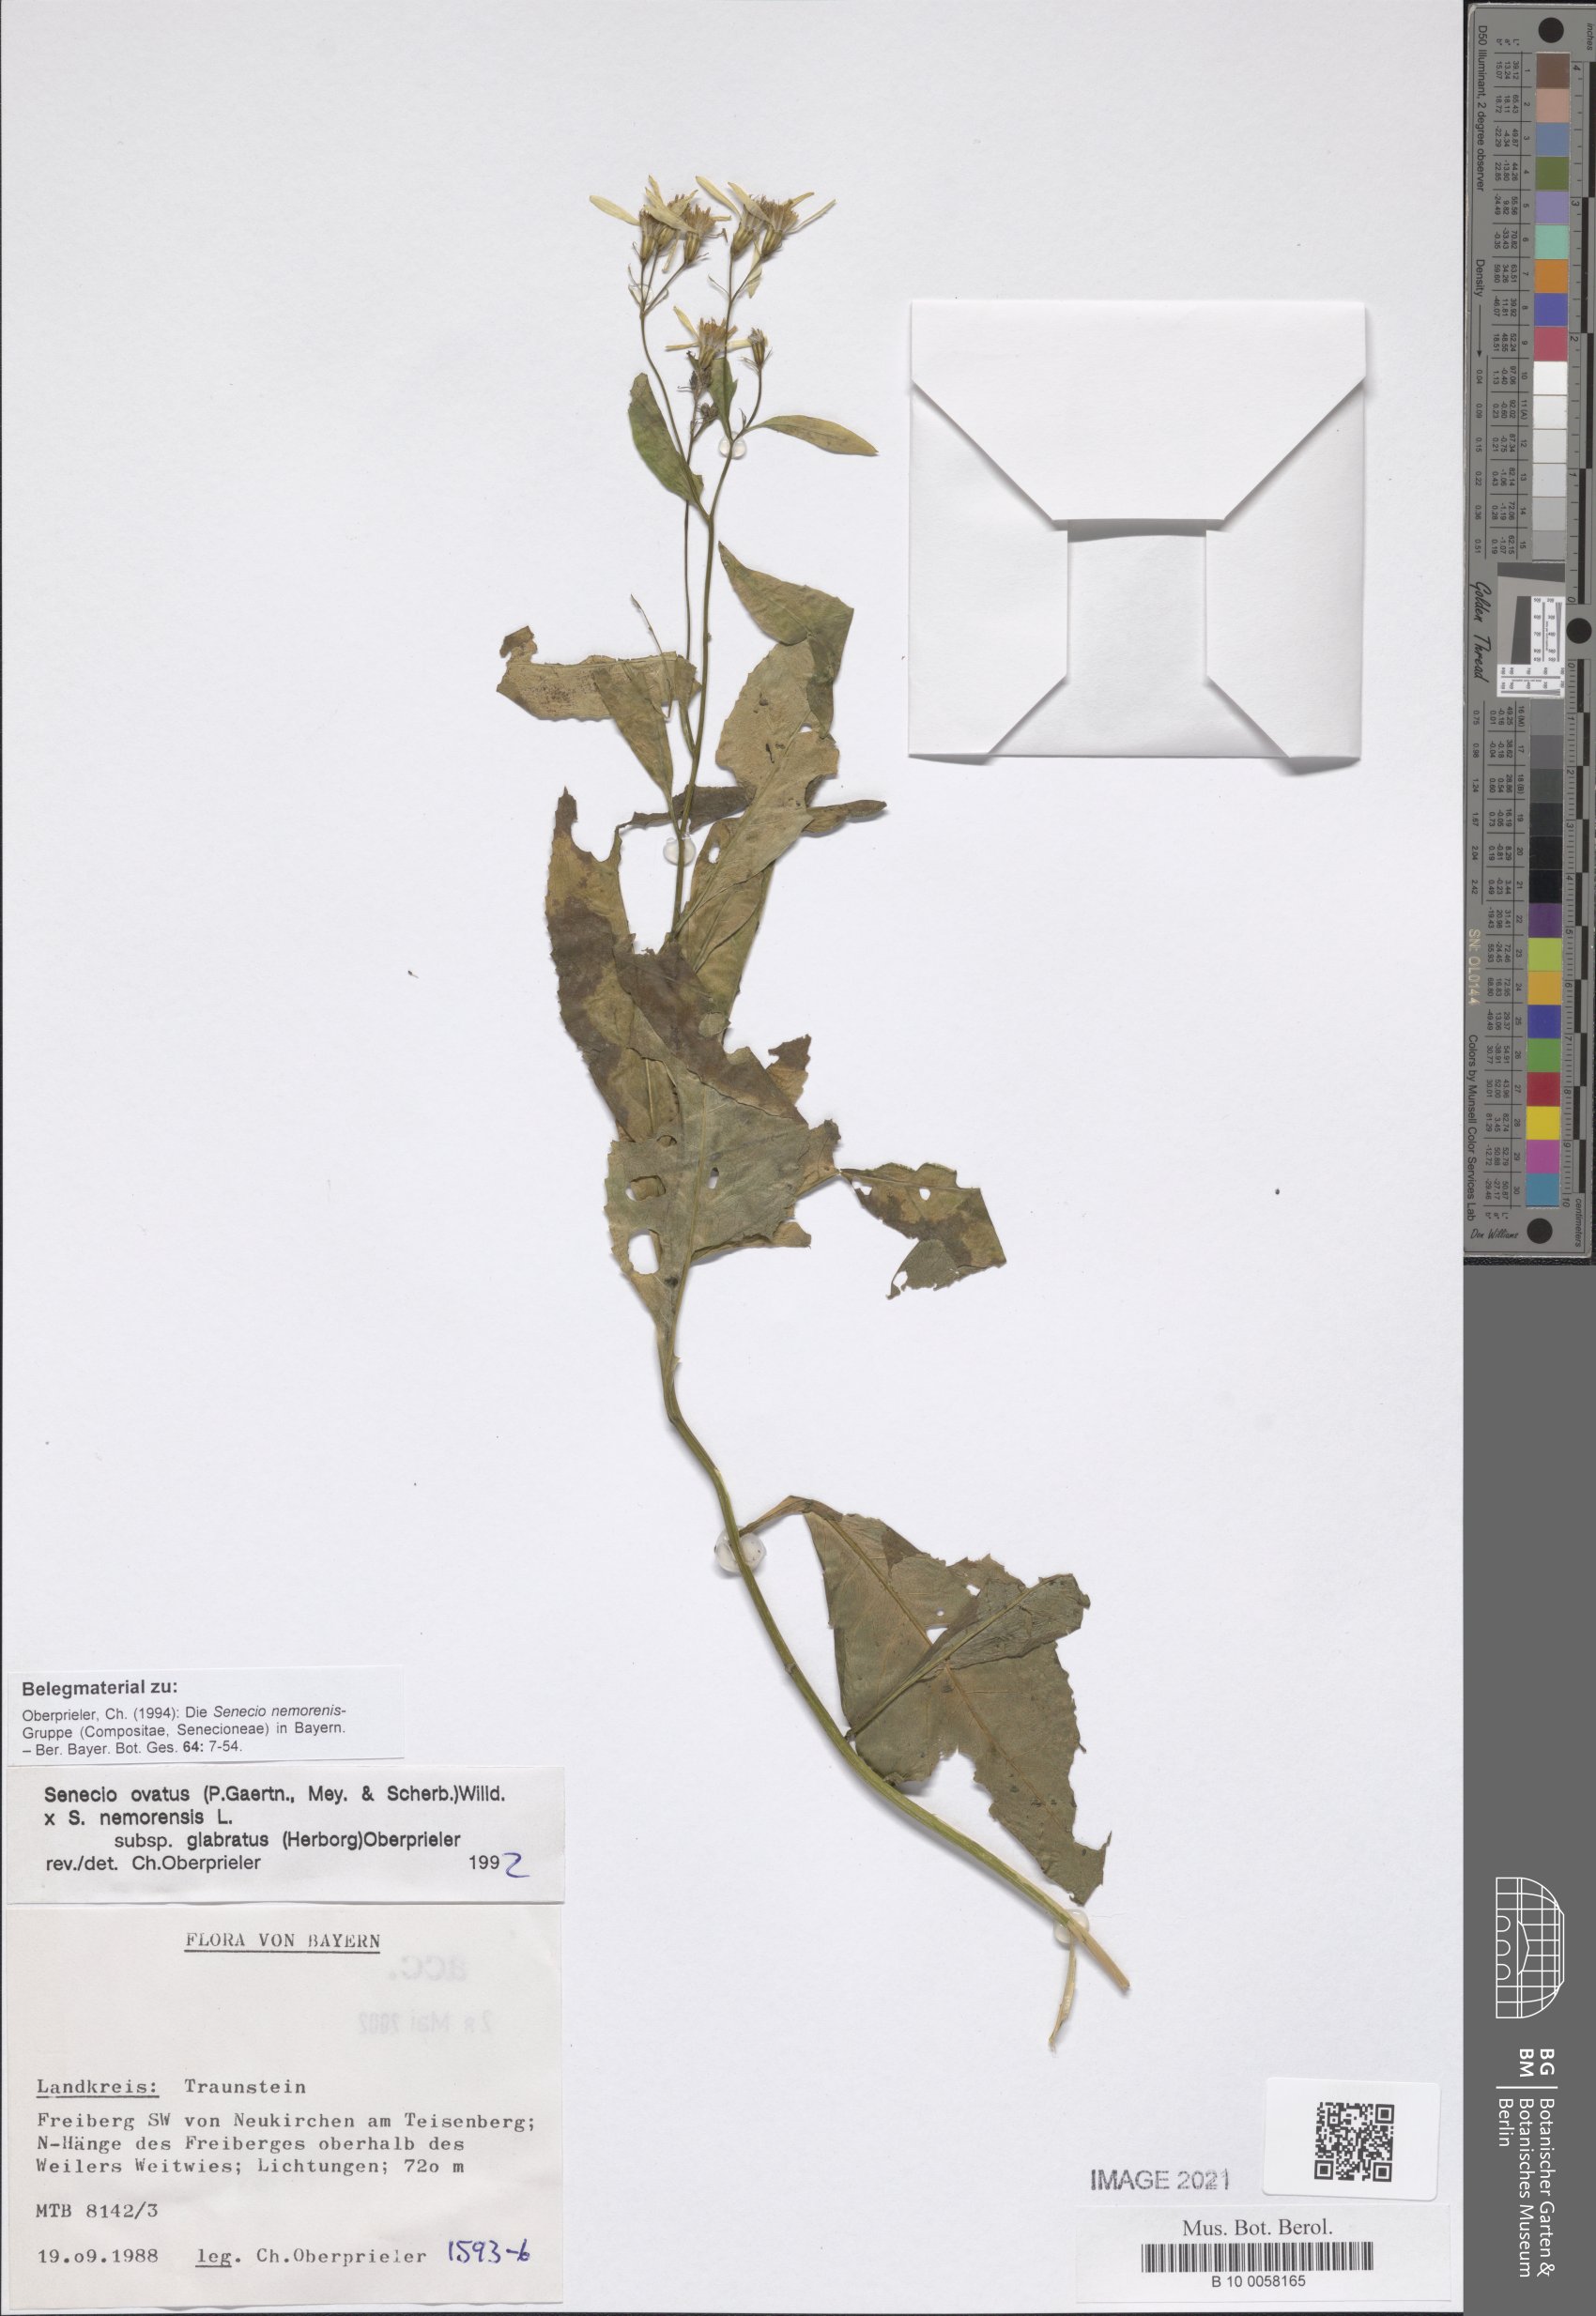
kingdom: Plantae
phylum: Tracheophyta
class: Magnoliopsida
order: Asterales
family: Asteraceae
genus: Senecio
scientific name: Senecio ovatus
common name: Wood ragwort
